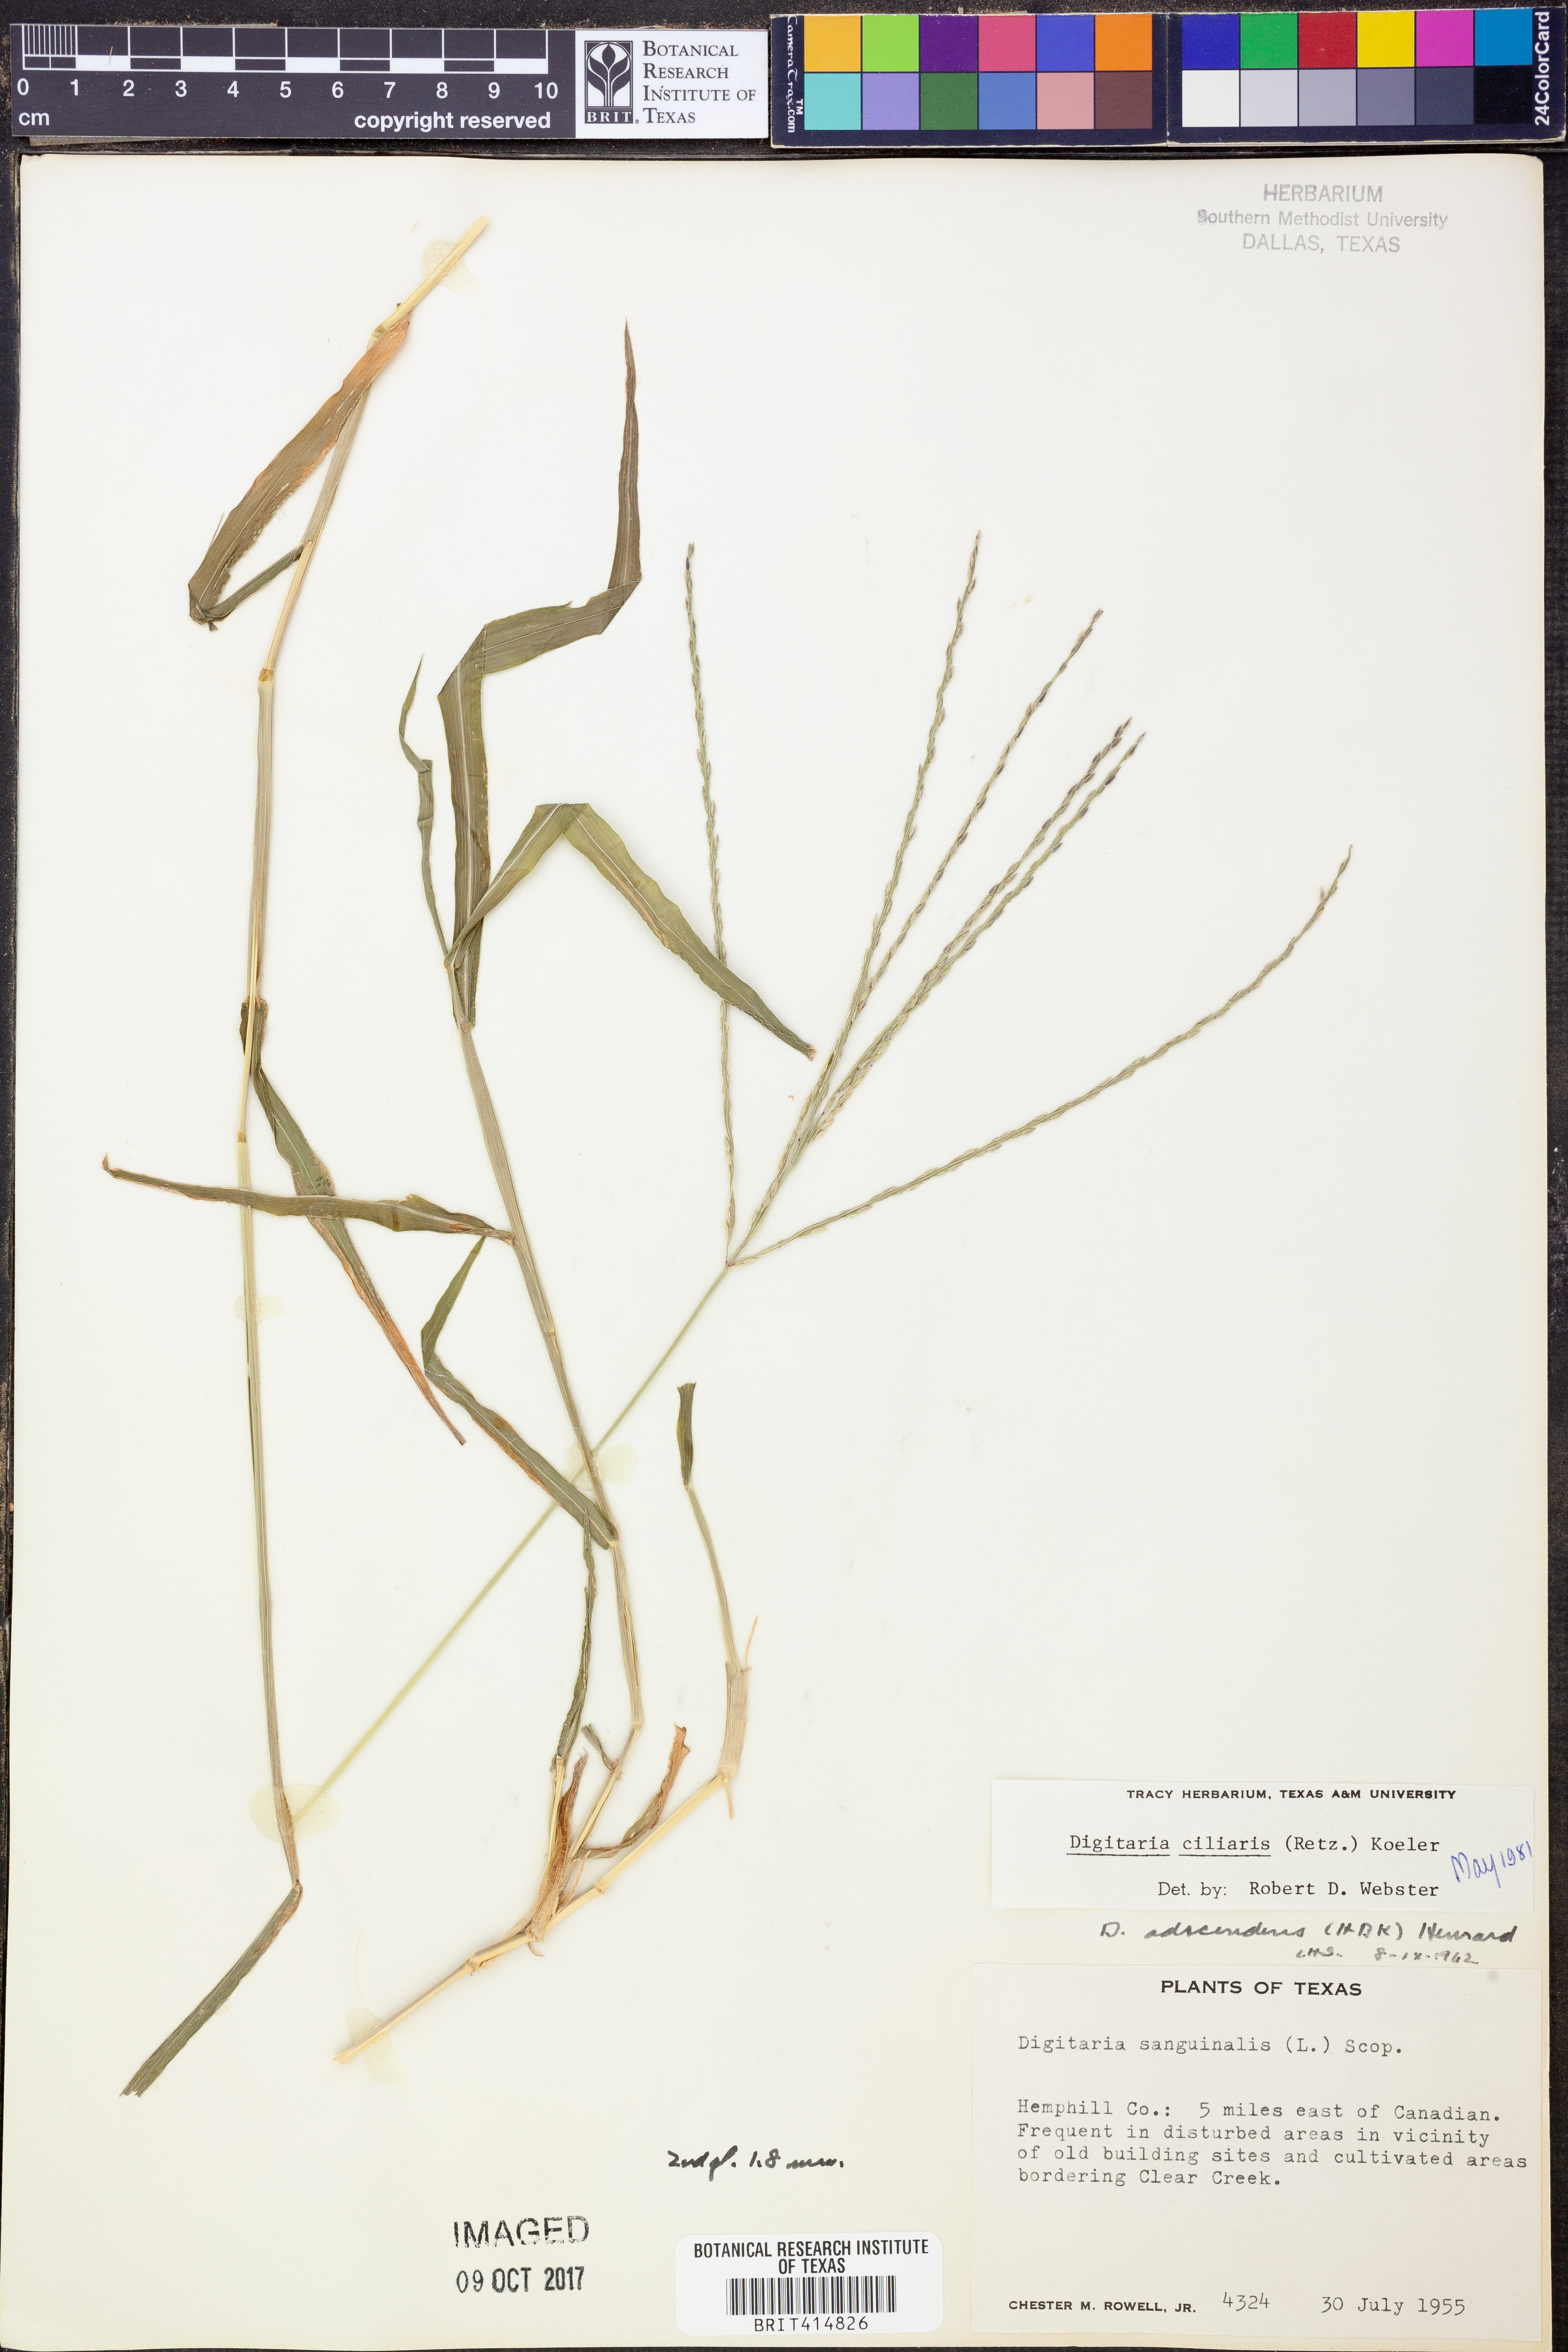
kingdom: Plantae
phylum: Tracheophyta
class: Liliopsida
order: Poales
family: Poaceae
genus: Digitaria
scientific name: Digitaria ciliaris
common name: Tropical finger-grass
